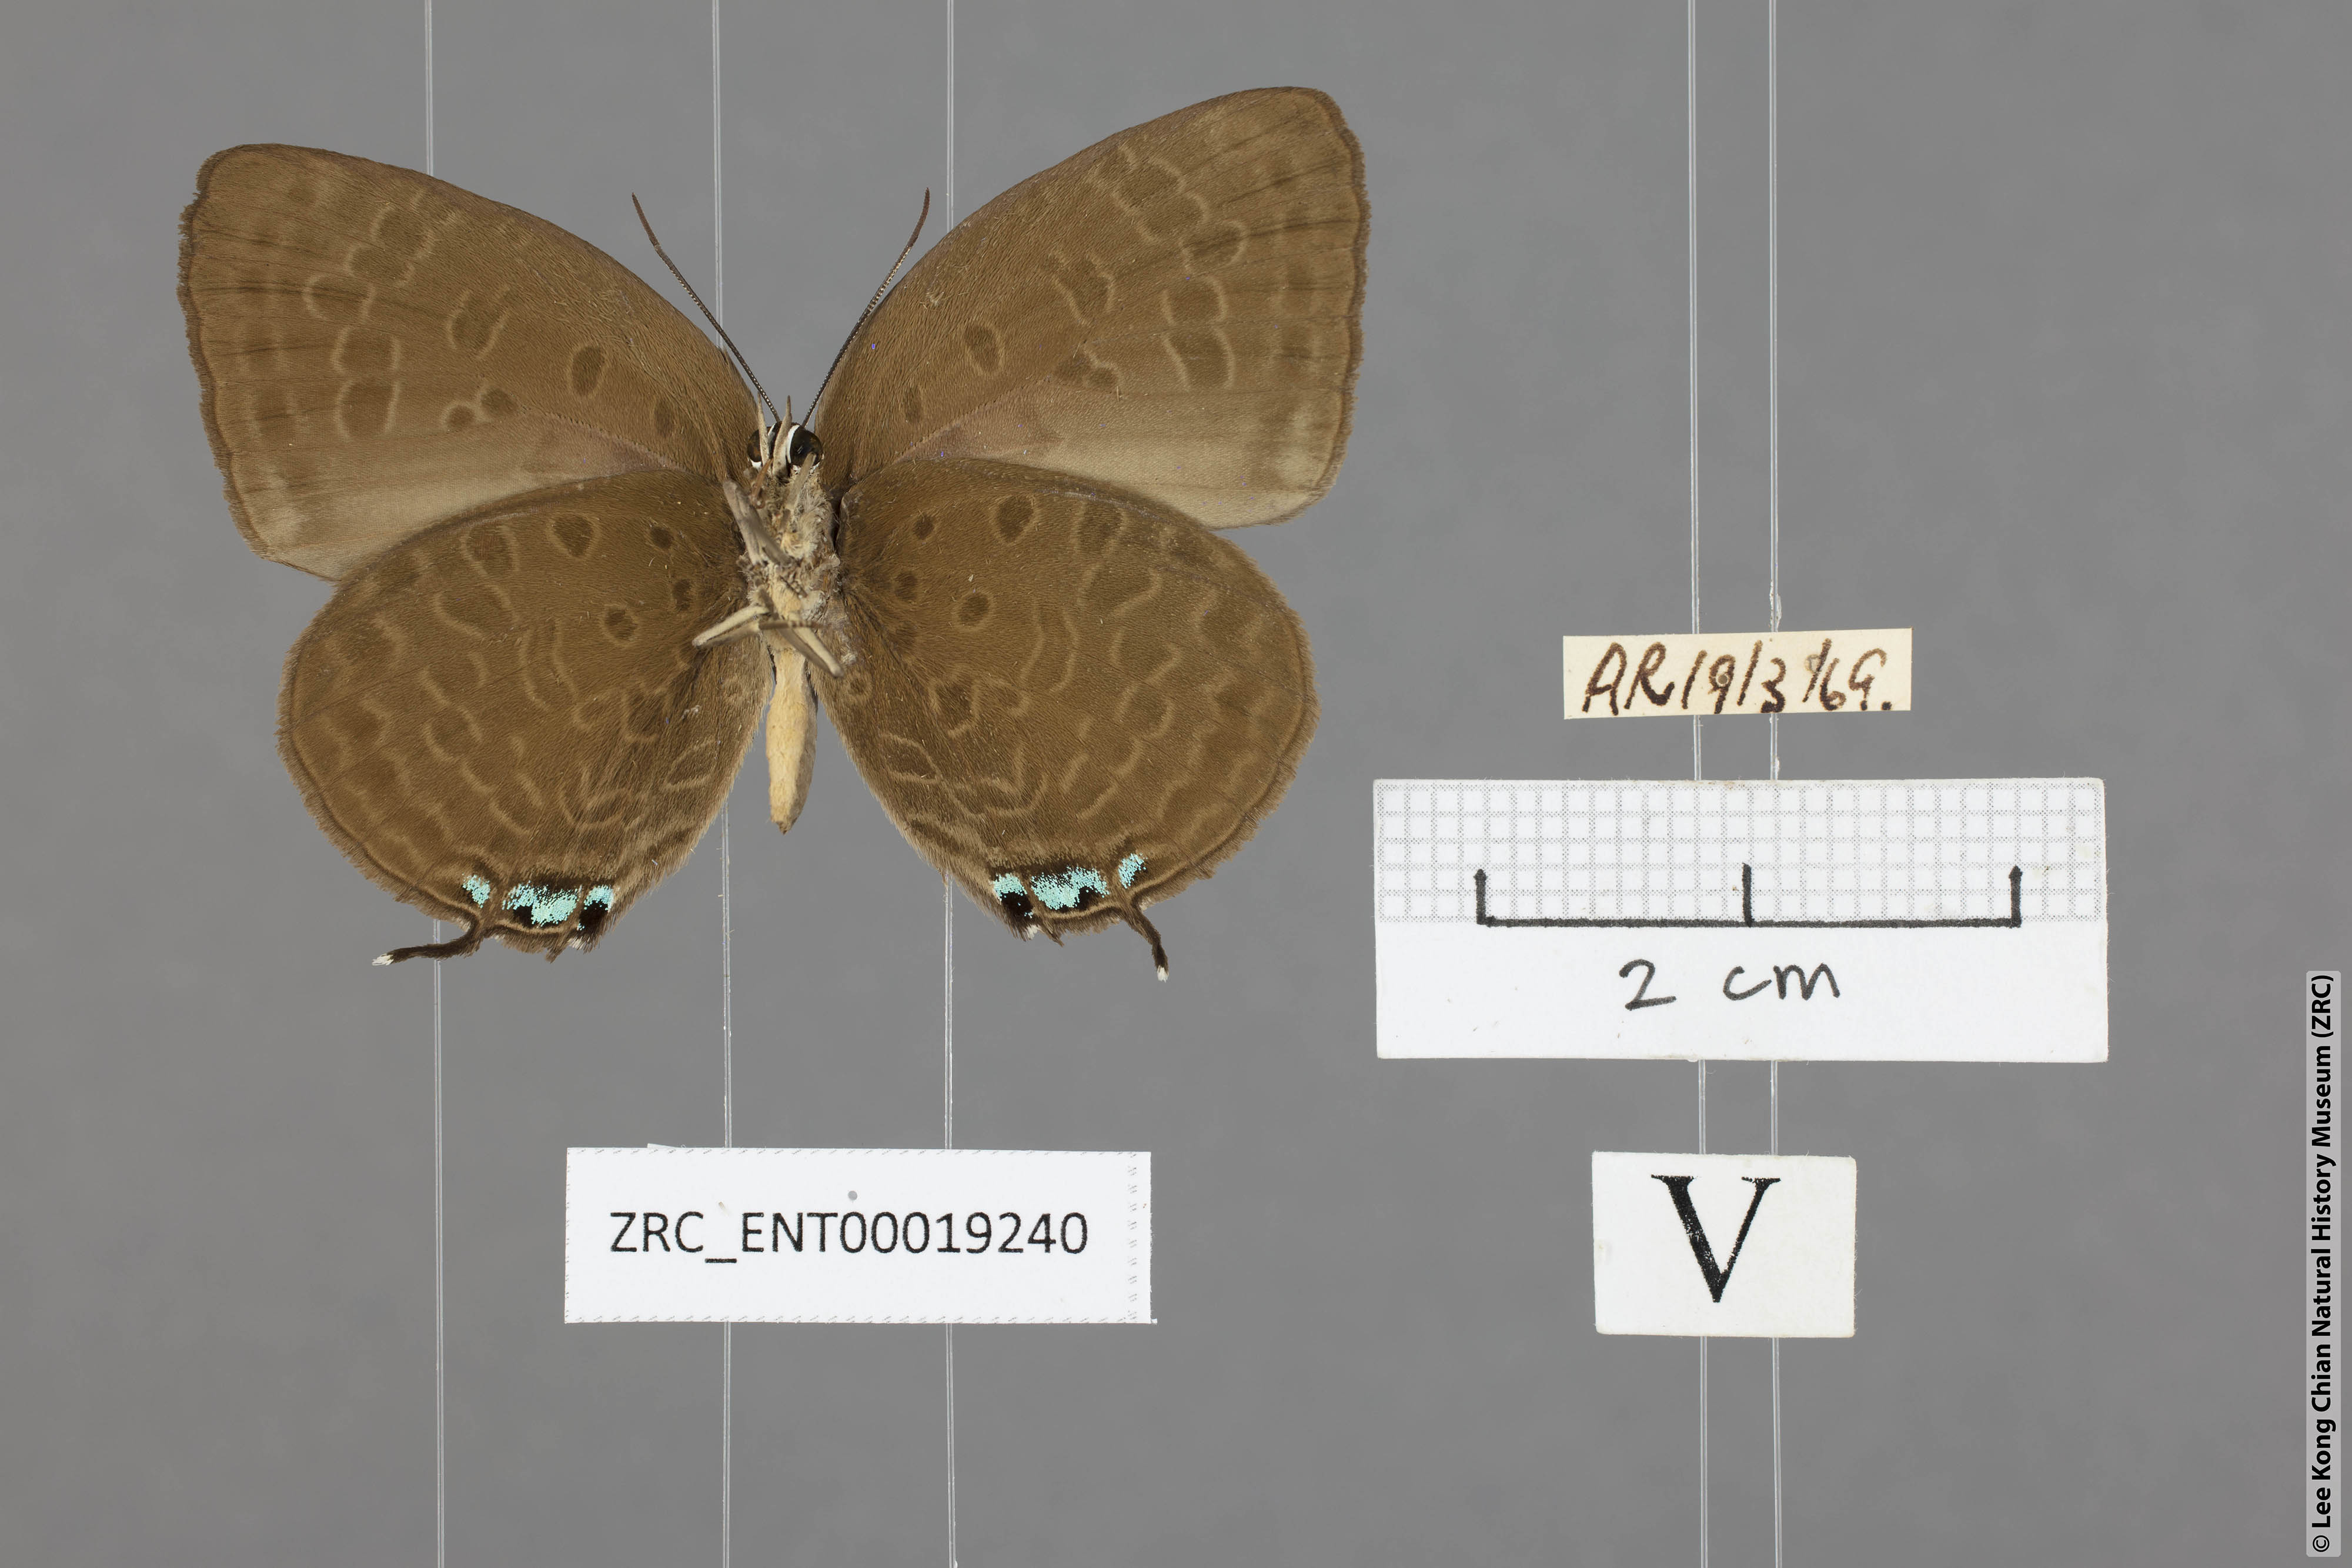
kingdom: Animalia
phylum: Arthropoda
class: Insecta
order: Lepidoptera
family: Lycaenidae
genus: Arhopala
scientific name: Arhopala atosia
